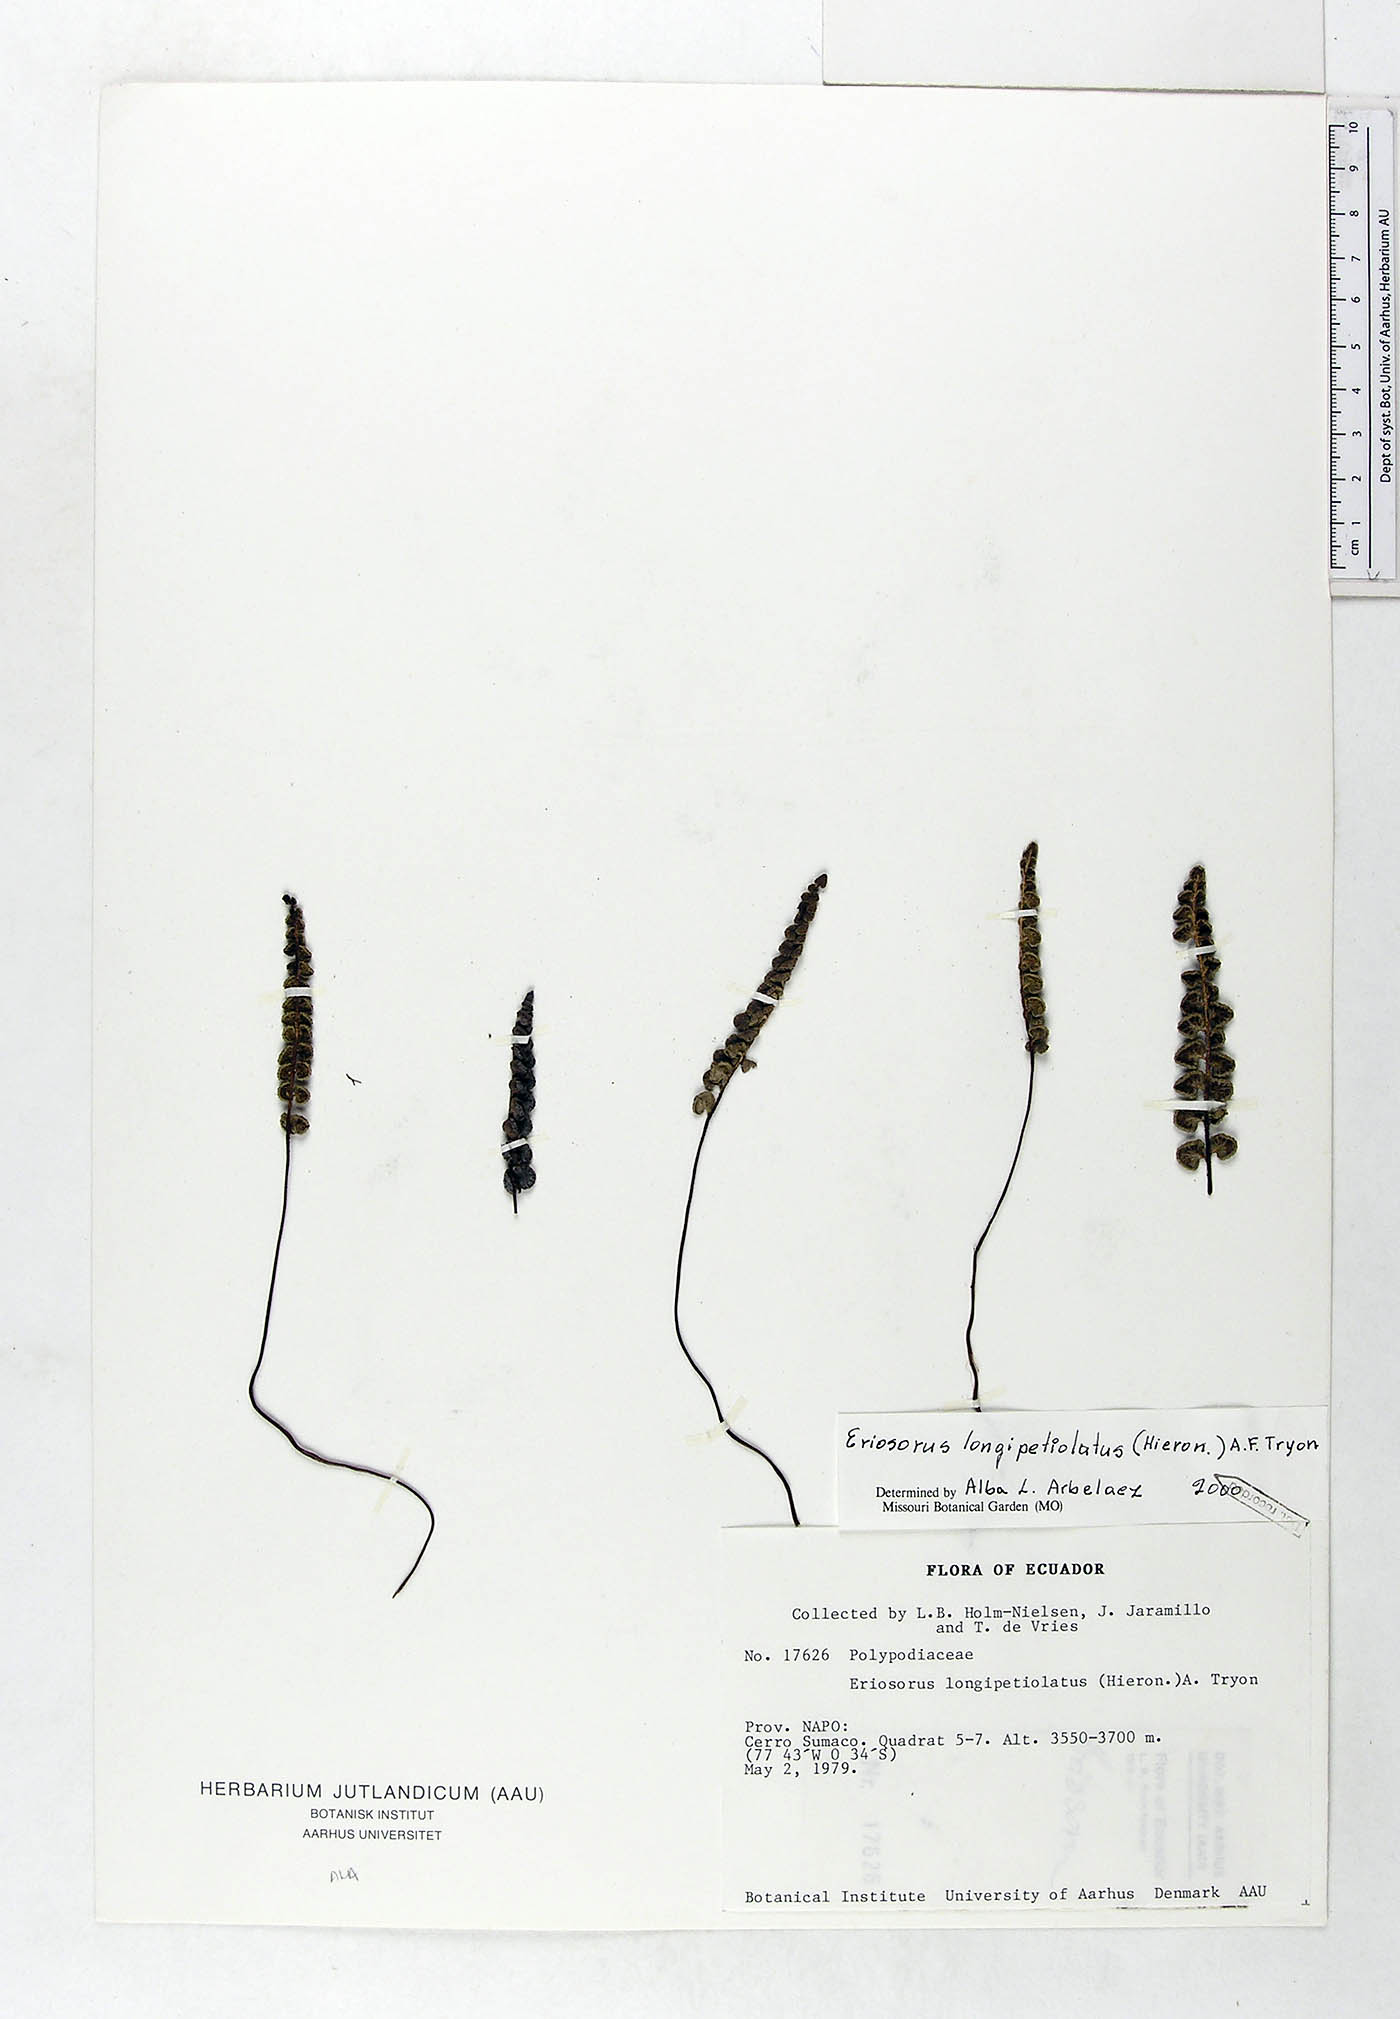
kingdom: Plantae
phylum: Tracheophyta
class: Polypodiopsida
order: Polypodiales
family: Pteridaceae
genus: Jamesonia
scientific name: Jamesonia longipetiolata
